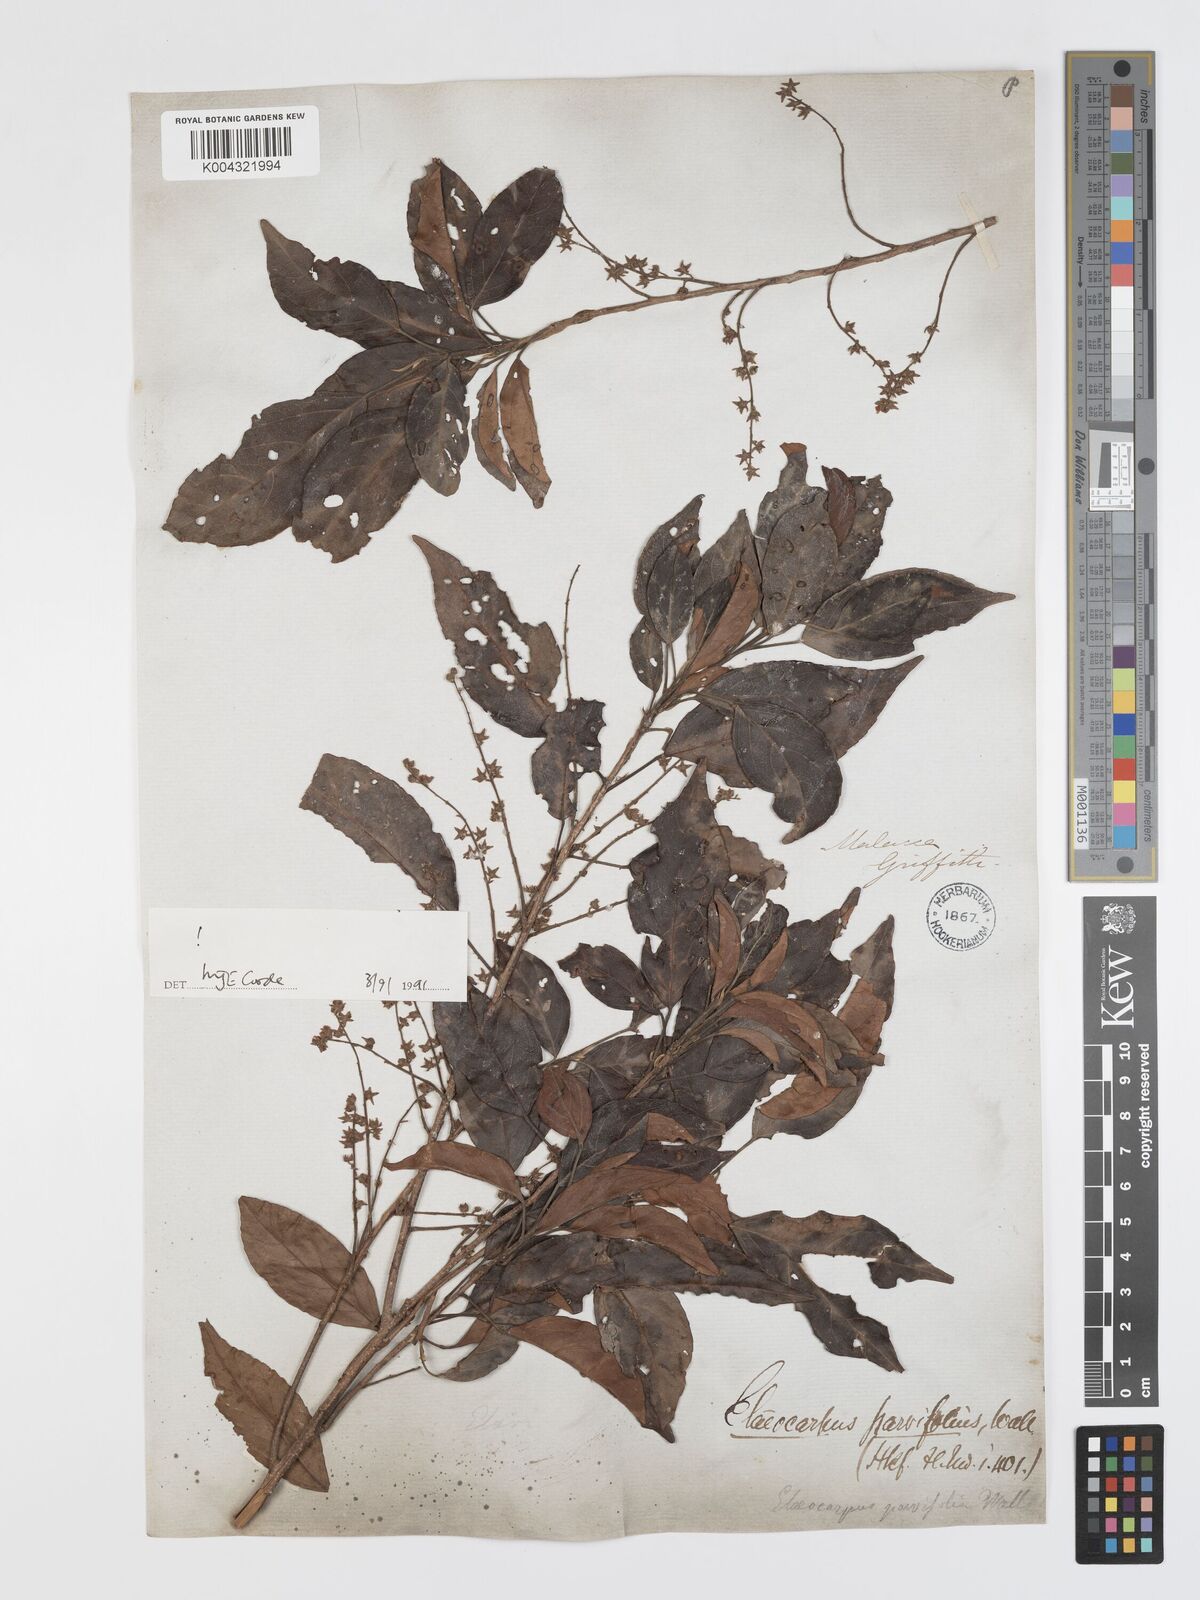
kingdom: Plantae
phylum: Tracheophyta
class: Magnoliopsida
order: Oxalidales
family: Elaeocarpaceae
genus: Elaeocarpus
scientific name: Elaeocarpus nitidus
